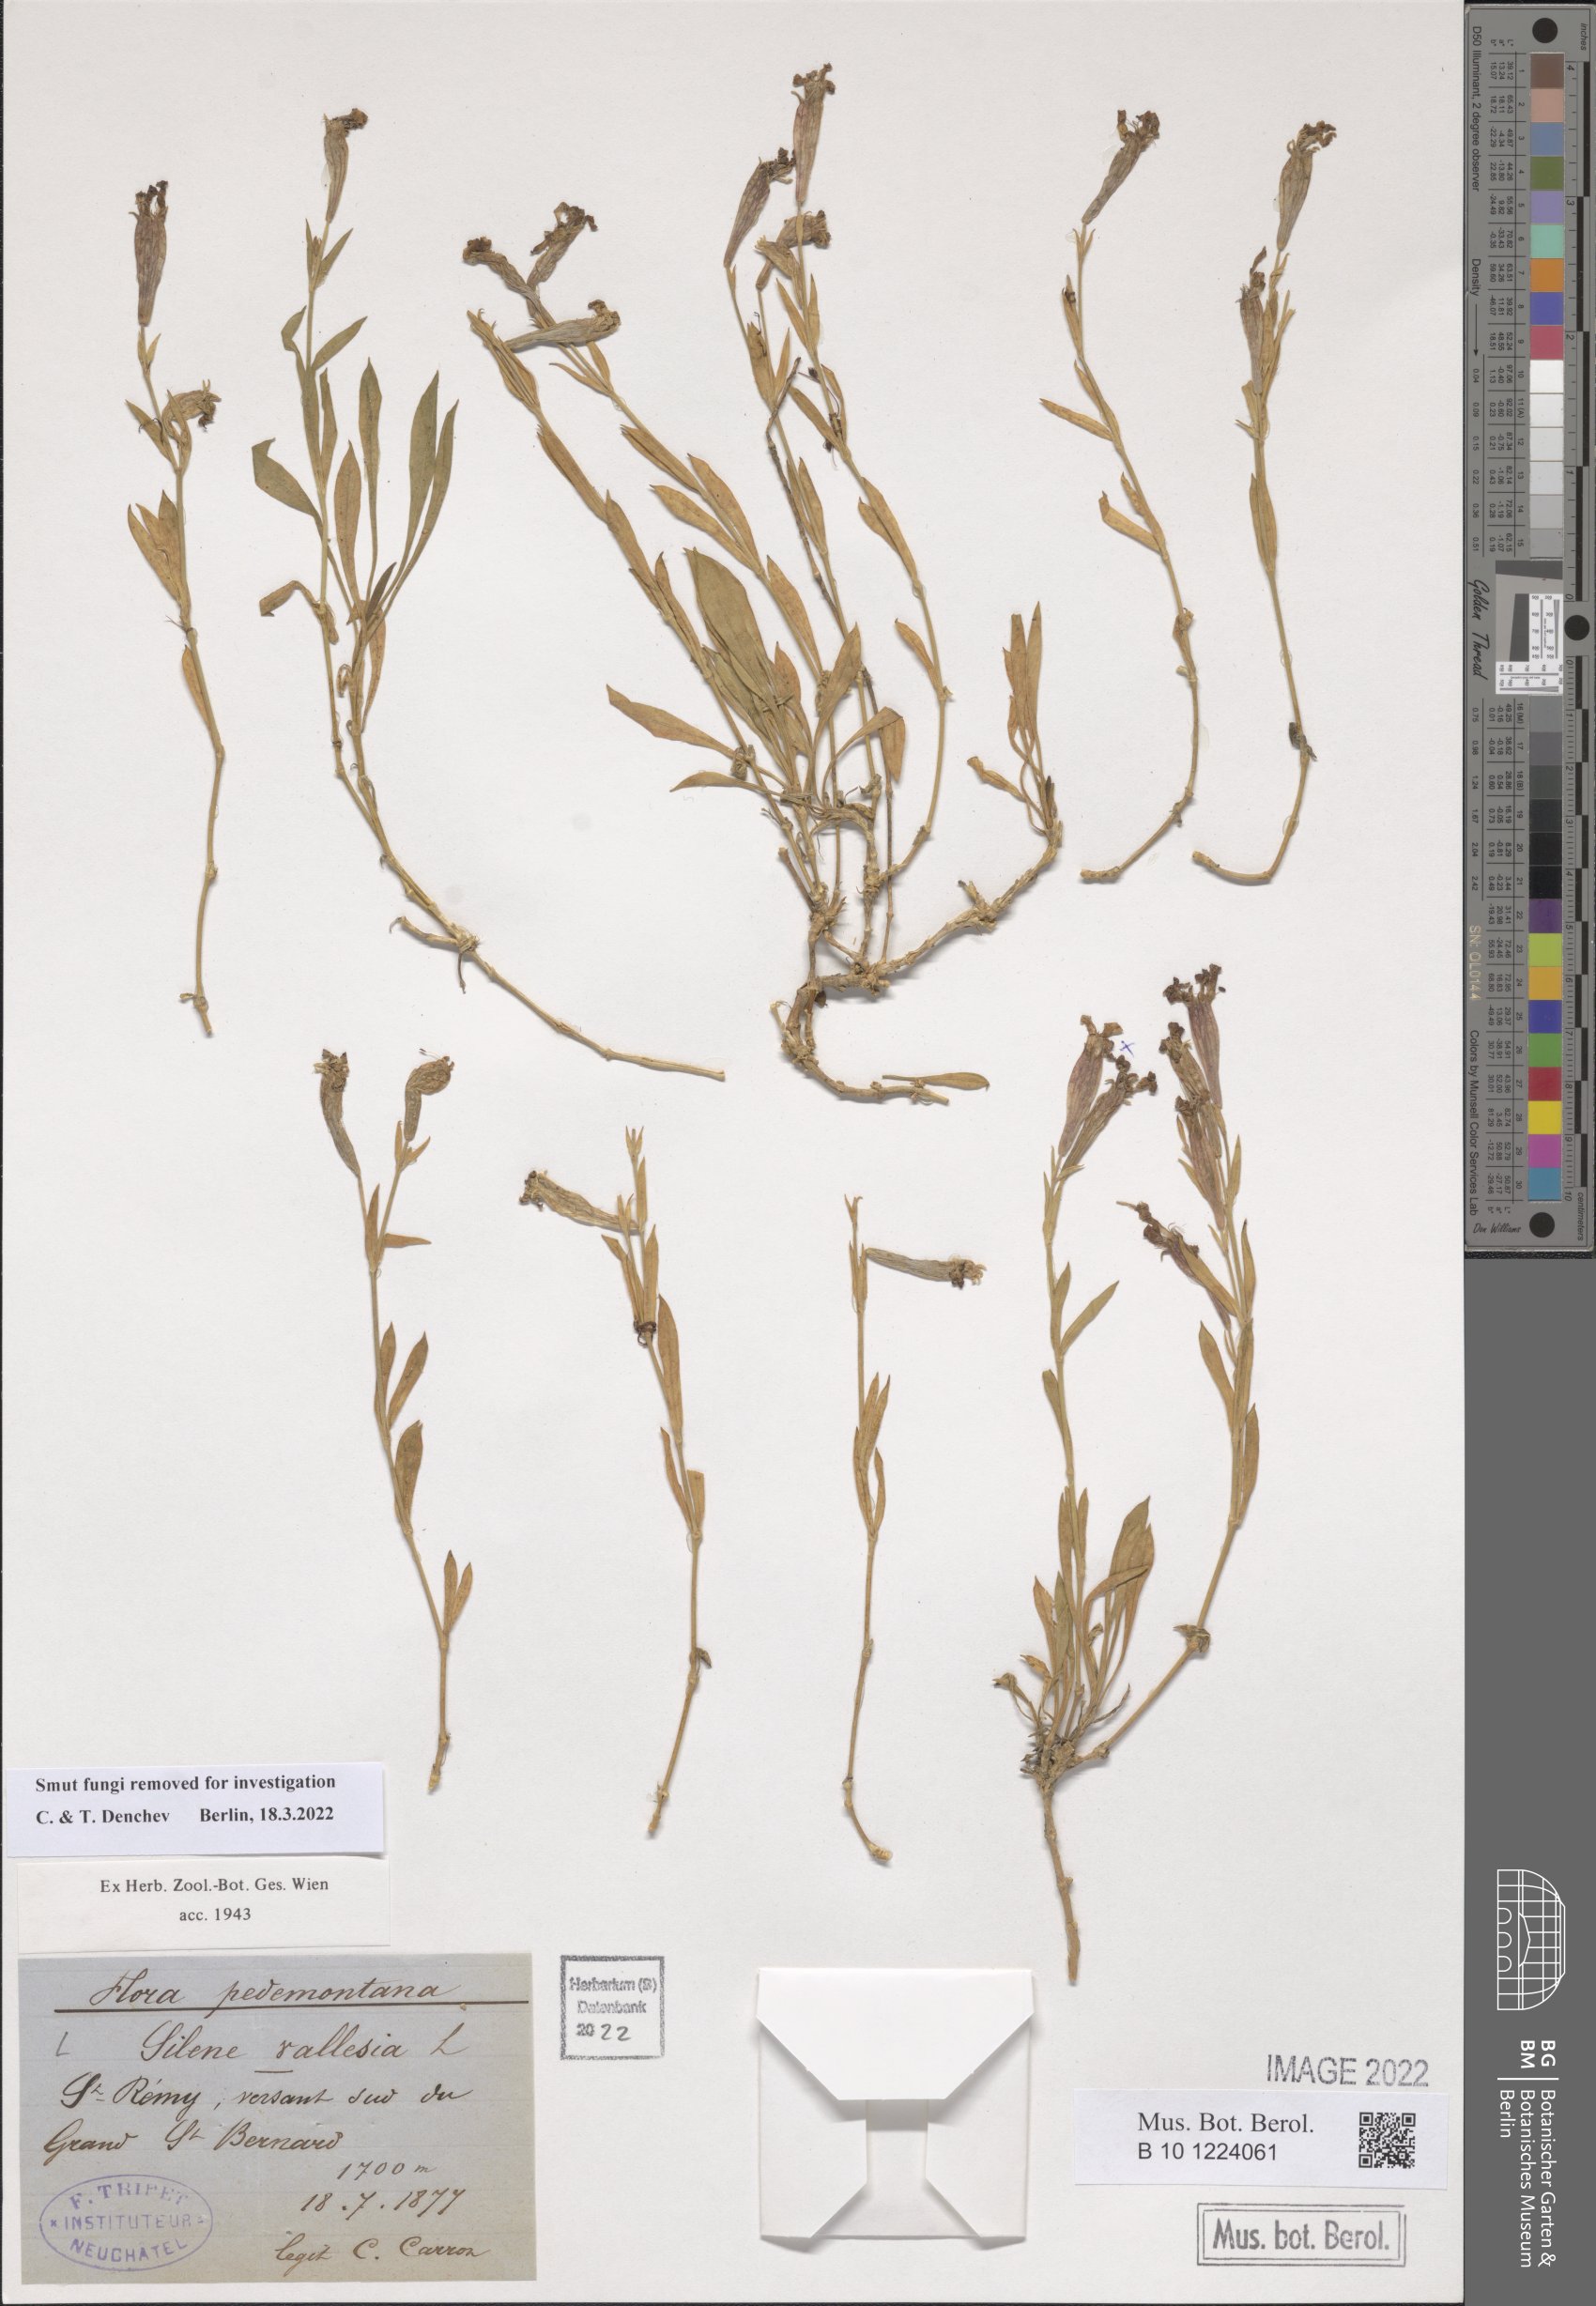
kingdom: Plantae
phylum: Tracheophyta
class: Magnoliopsida
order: Caryophyllales
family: Caryophyllaceae
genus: Silene
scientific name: Silene vallesia
